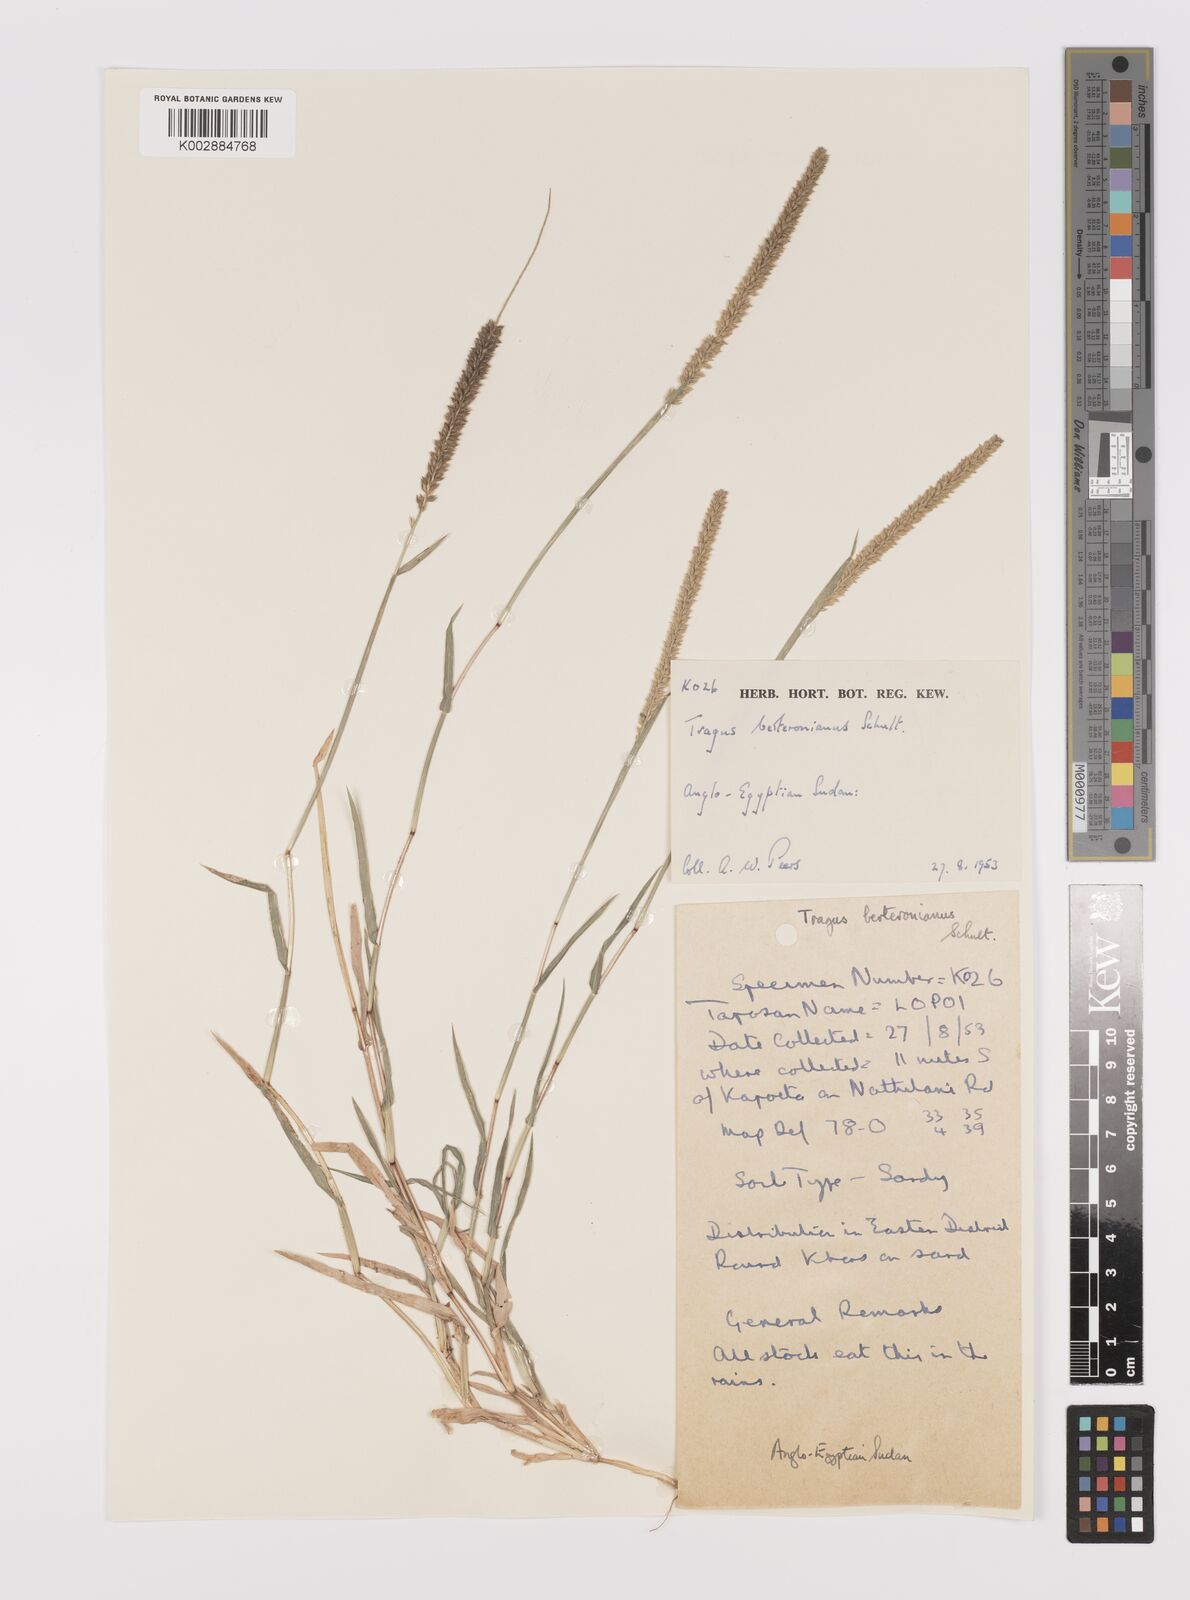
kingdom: Plantae
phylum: Tracheophyta
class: Liliopsida
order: Poales
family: Poaceae
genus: Tragus
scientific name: Tragus berteronianus
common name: African bur-grass
